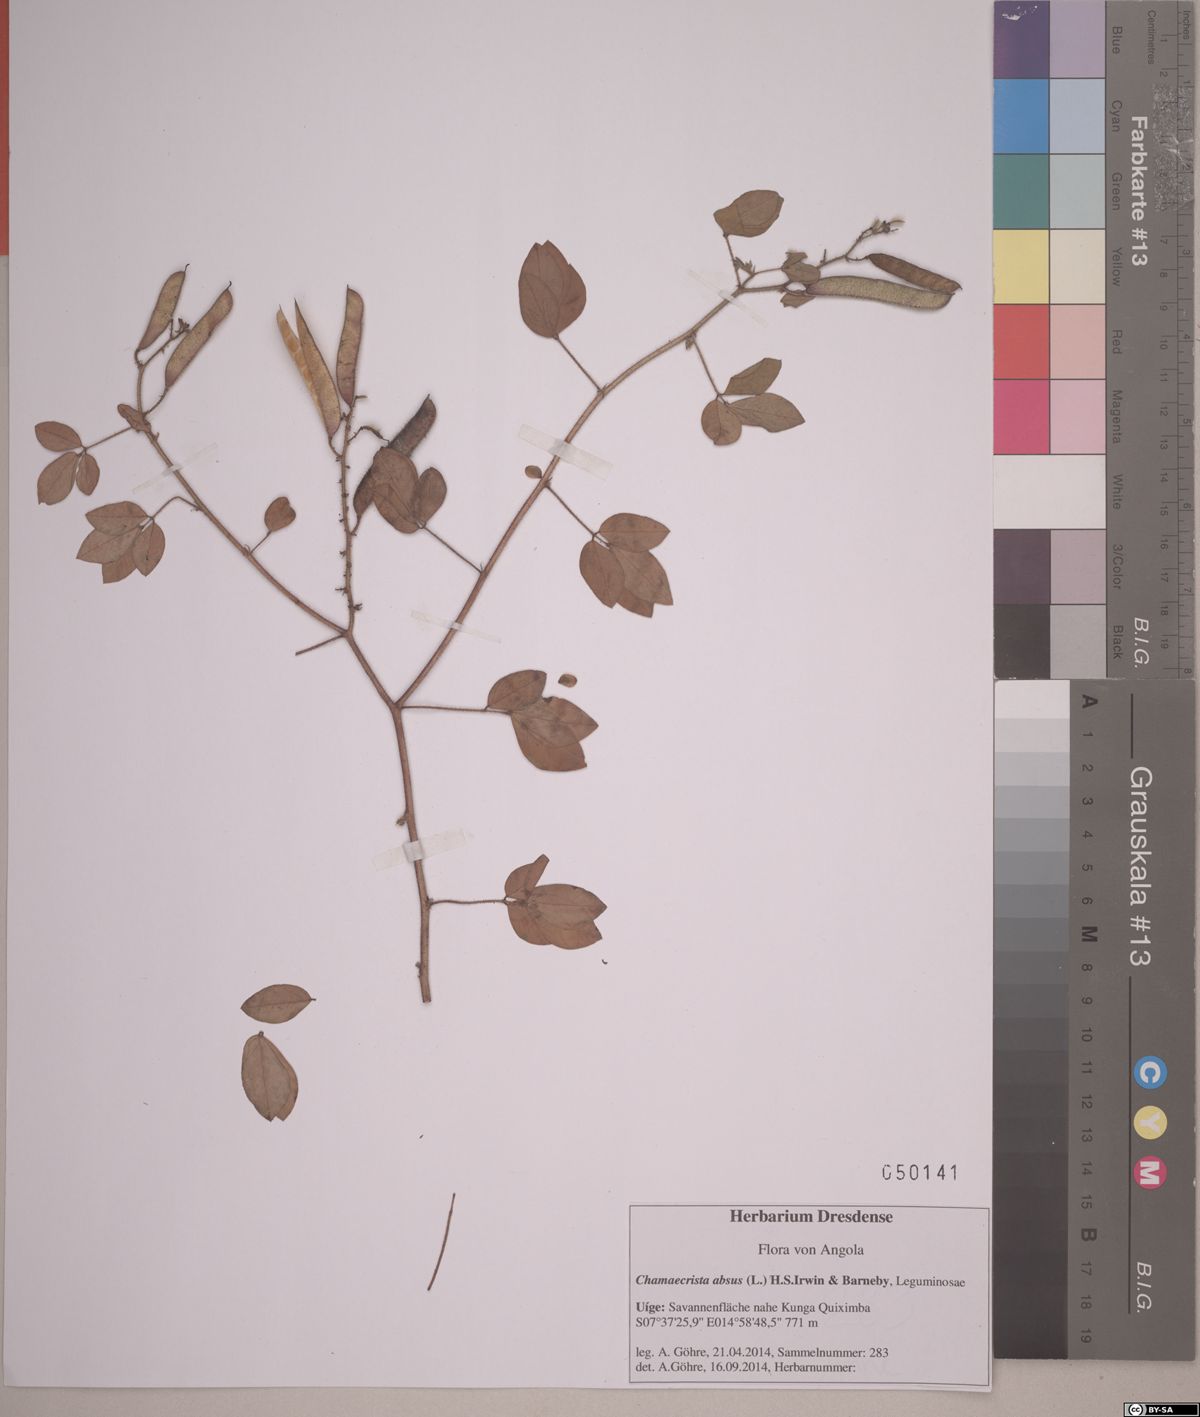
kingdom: Plantae
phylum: Tracheophyta
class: Magnoliopsida
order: Fabales
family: Fabaceae
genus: Chamaecrista
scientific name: Chamaecrista absus
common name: Tropical sensitive pea
